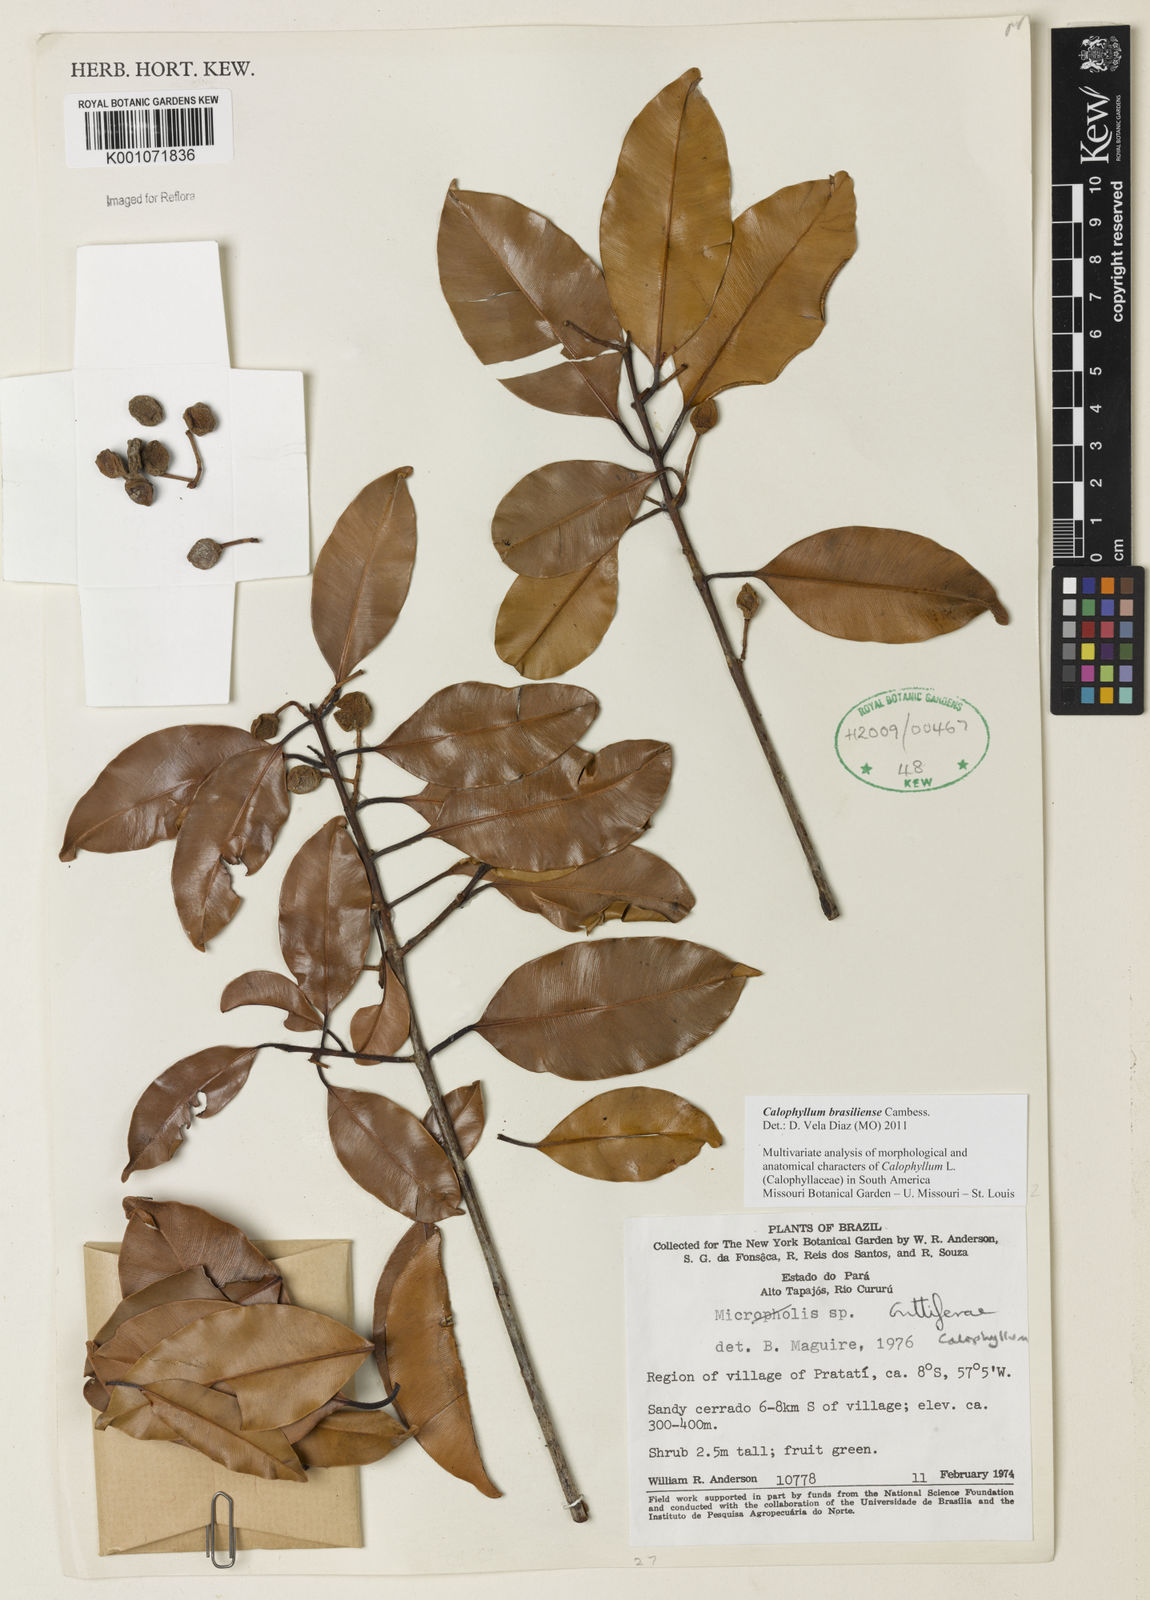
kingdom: Plantae
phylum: Tracheophyta
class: Magnoliopsida
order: Malpighiales
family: Calophyllaceae
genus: Calophyllum
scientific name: Calophyllum brasiliense
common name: Santa maria
